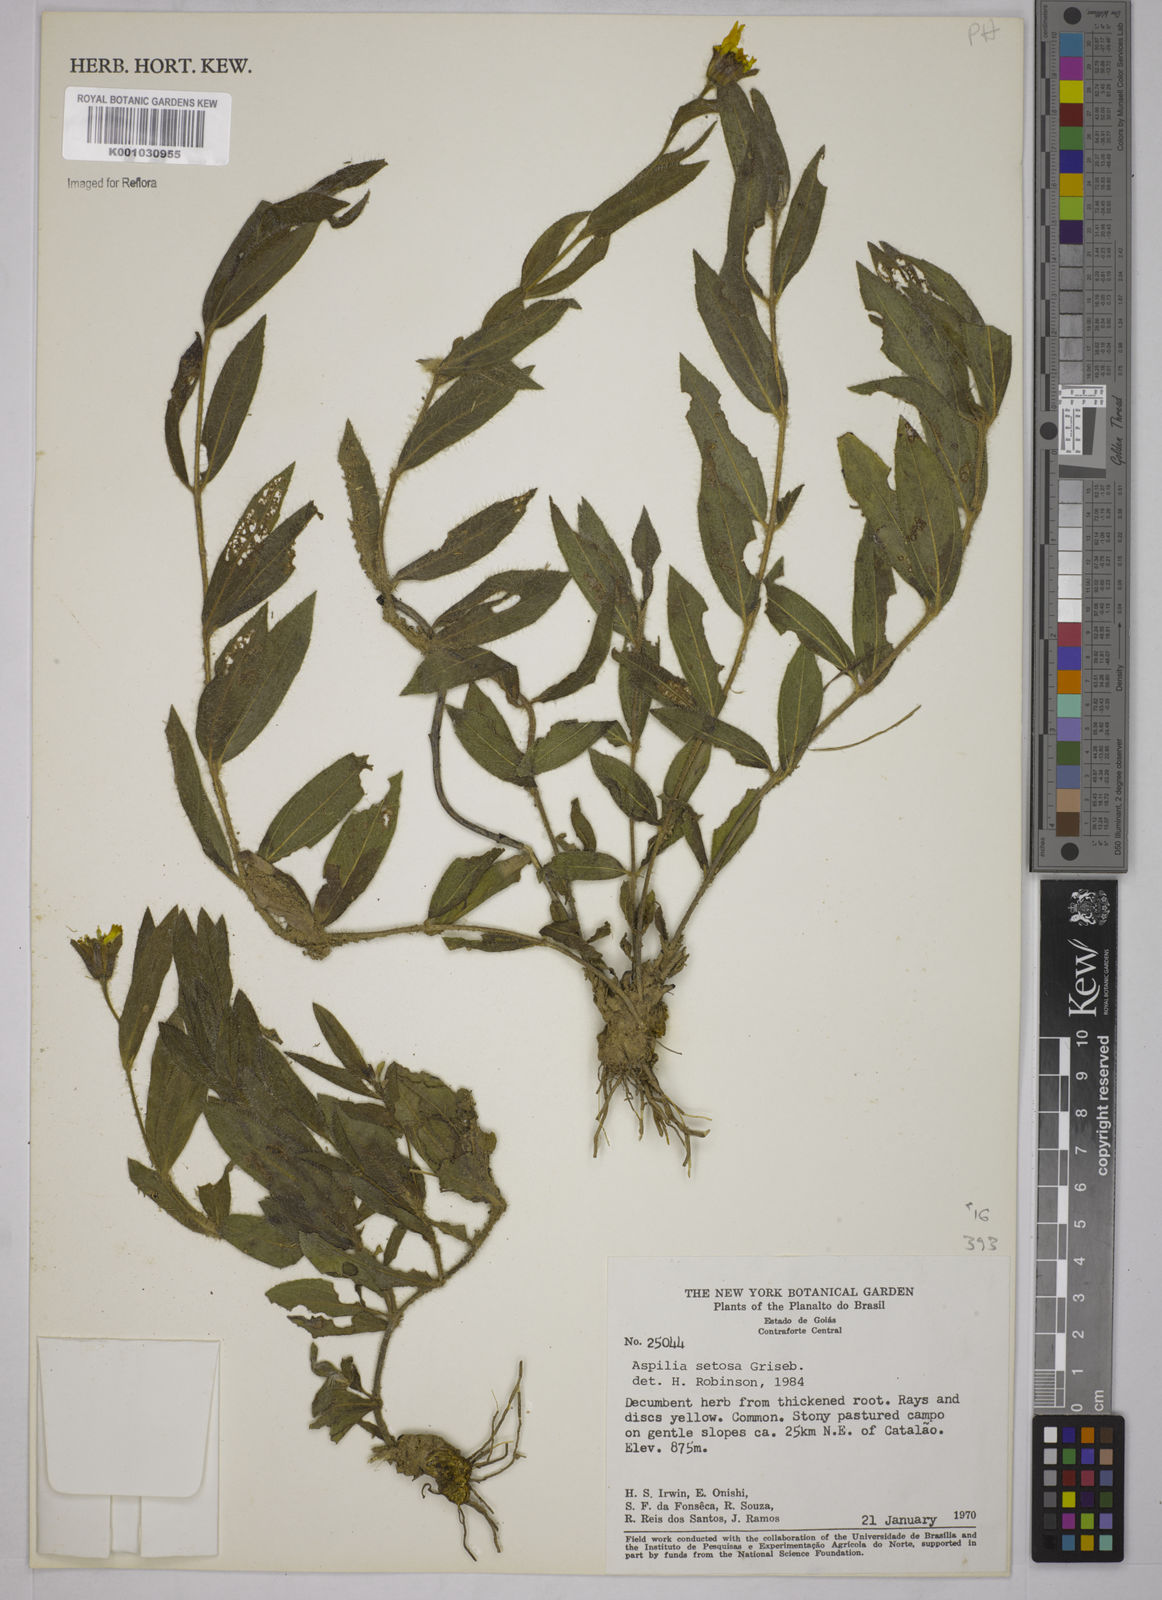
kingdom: Plantae
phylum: Tracheophyta
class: Magnoliopsida
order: Asterales
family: Asteraceae
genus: Aspilia
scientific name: Aspilia
